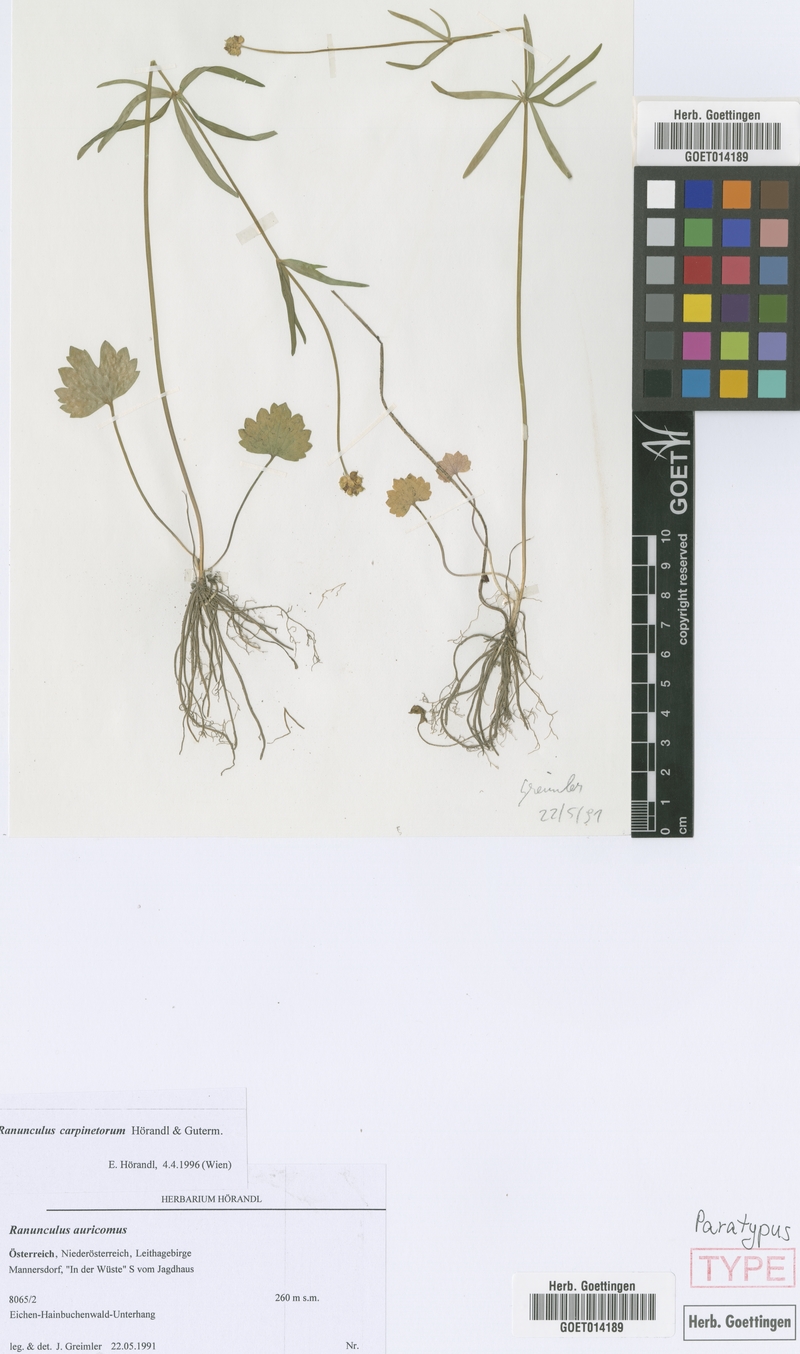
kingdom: Plantae
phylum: Tracheophyta
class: Magnoliopsida
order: Ranunculales
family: Ranunculaceae
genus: Ranunculus
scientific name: Ranunculus carpinetorum
